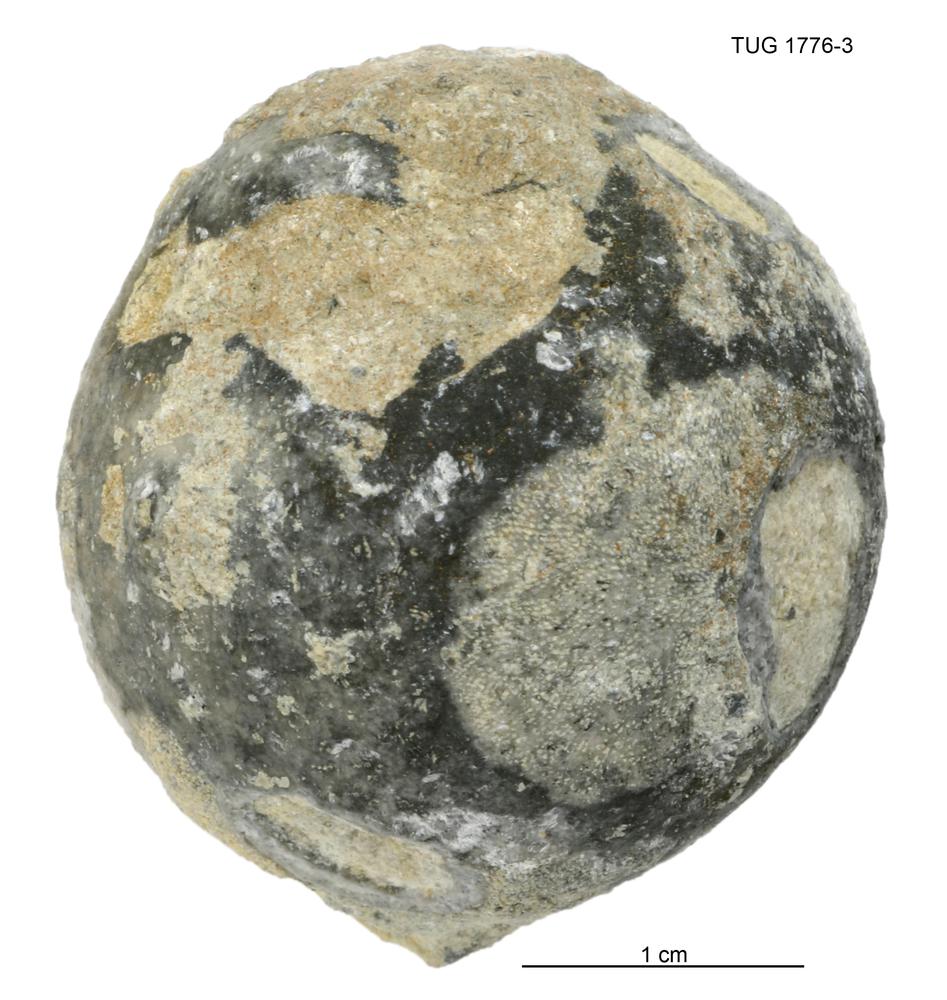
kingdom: Animalia
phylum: Echinodermata
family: Echinosphaeritidae
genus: Echinosphaerites
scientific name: Echinosphaerites
